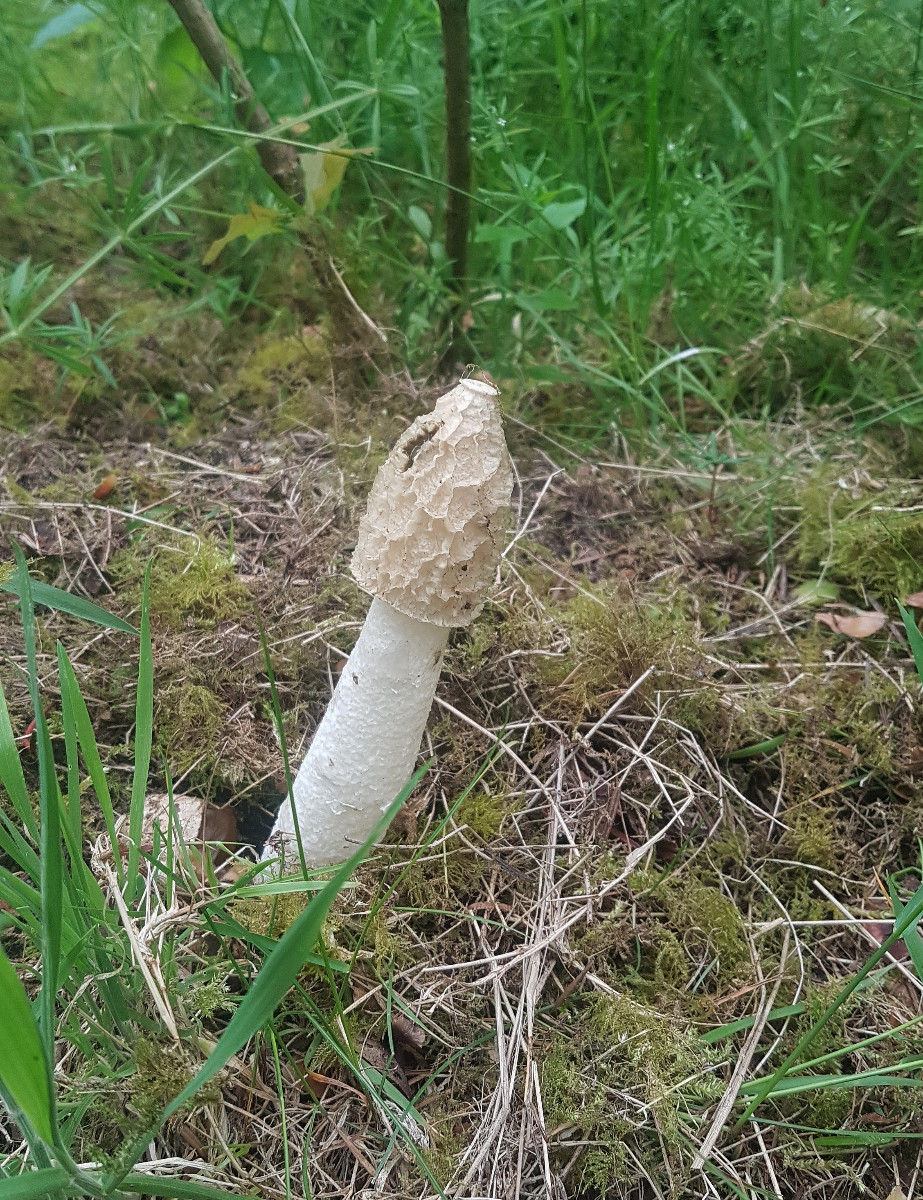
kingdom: Fungi
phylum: Basidiomycota
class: Agaricomycetes
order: Phallales
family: Phallaceae
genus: Phallus
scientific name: Phallus impudicus
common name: almindelig stinksvamp
